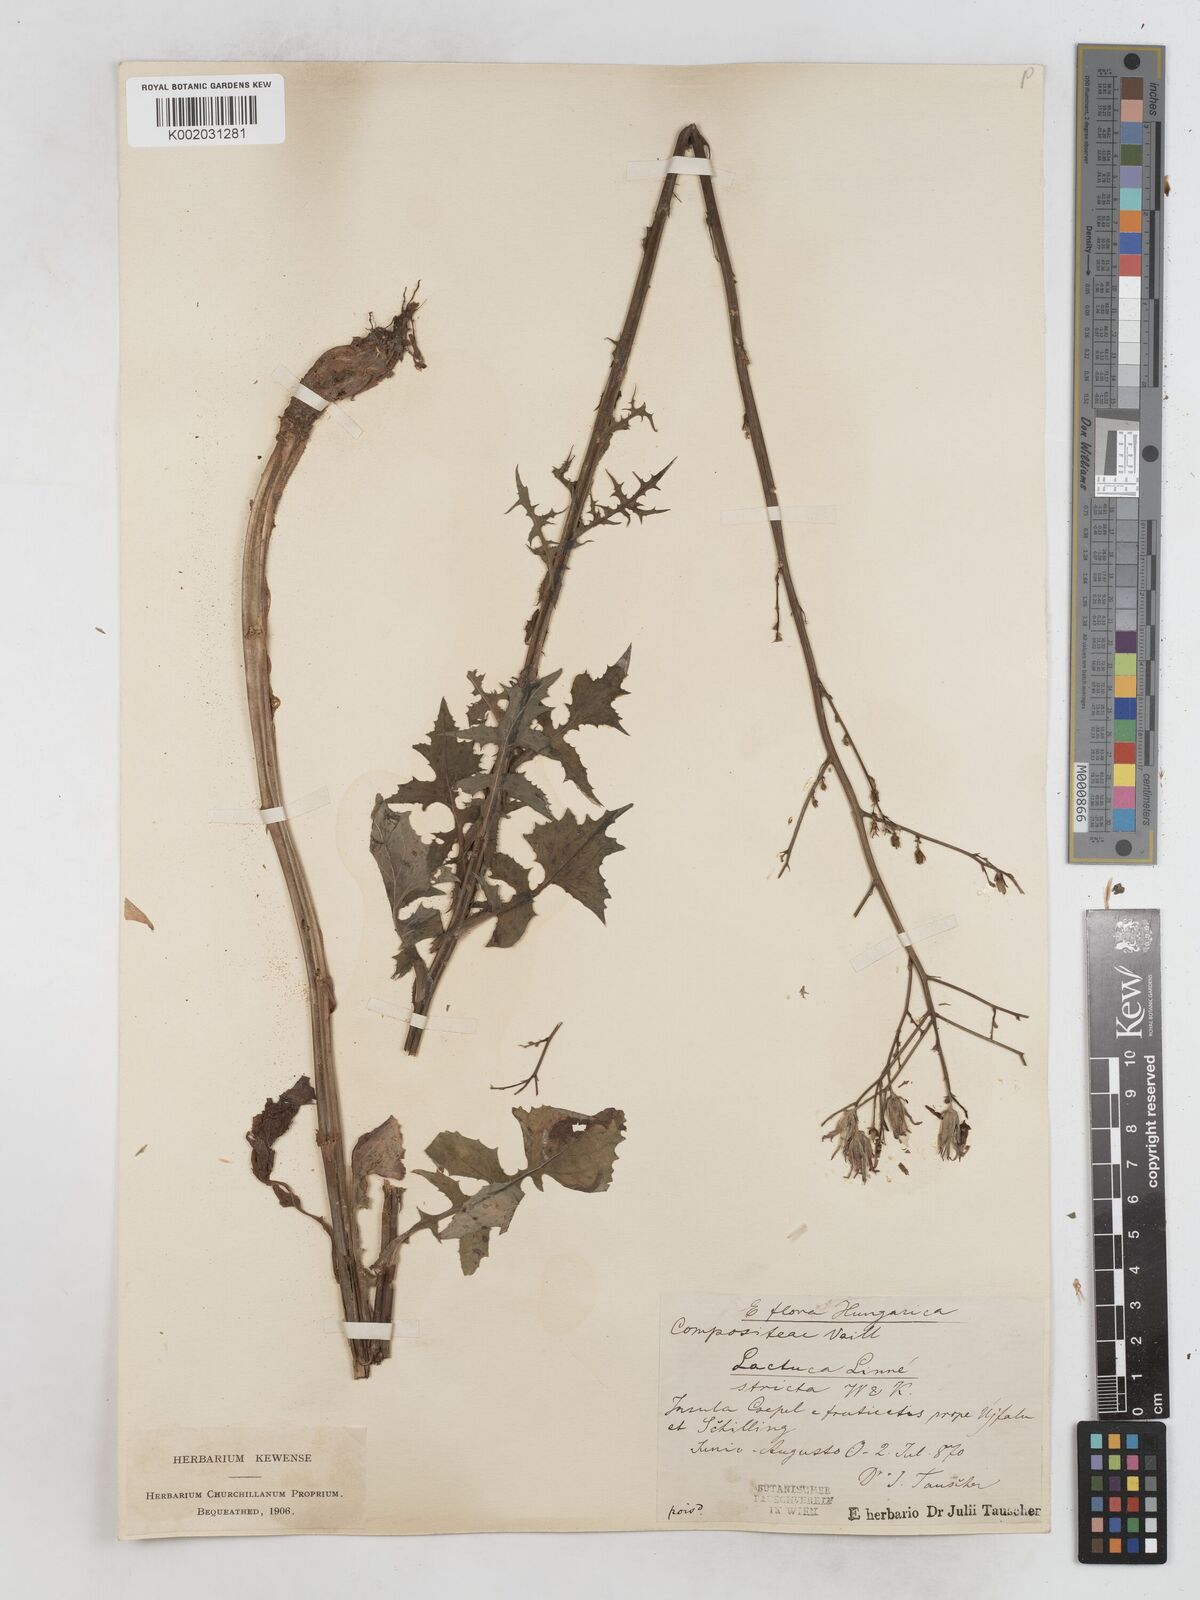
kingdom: Plantae
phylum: Tracheophyta
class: Magnoliopsida
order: Asterales
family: Asteraceae
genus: Lactuca
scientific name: Lactuca quercina
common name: Wild lettuce
